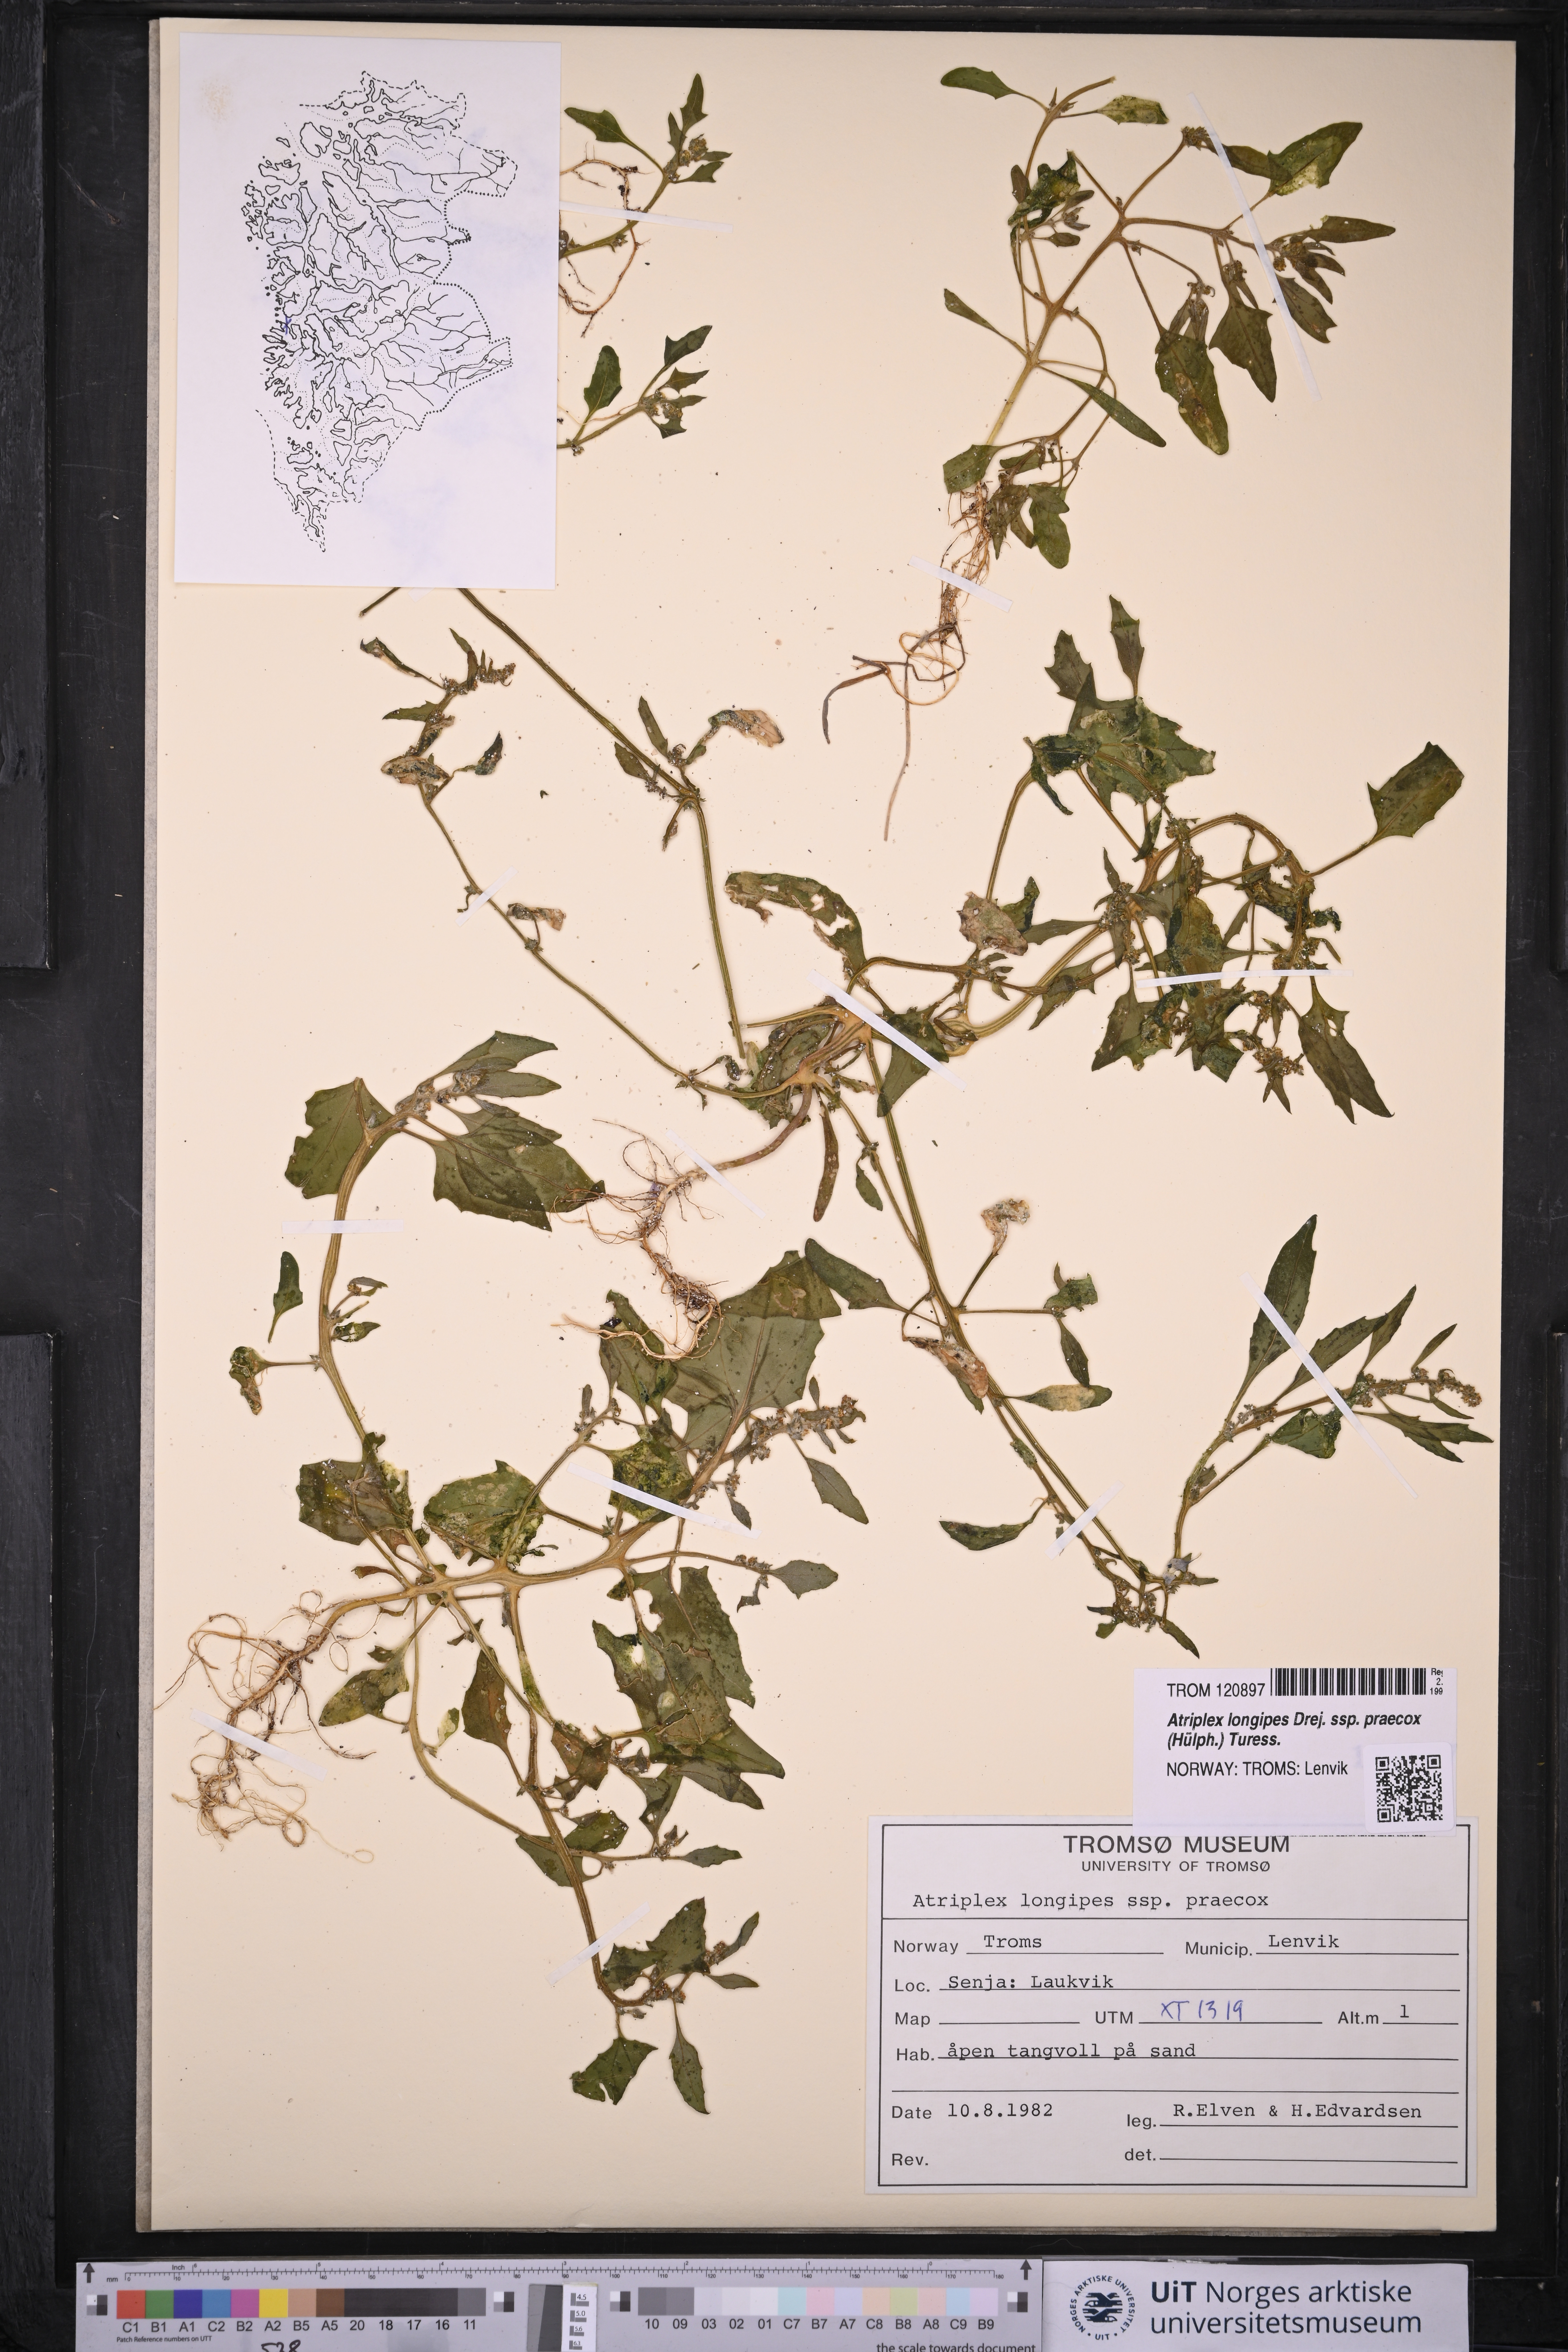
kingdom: Plantae
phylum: Tracheophyta
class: Magnoliopsida
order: Caryophyllales
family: Amaranthaceae
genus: Atriplex
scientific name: Atriplex praecox
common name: Early orache
